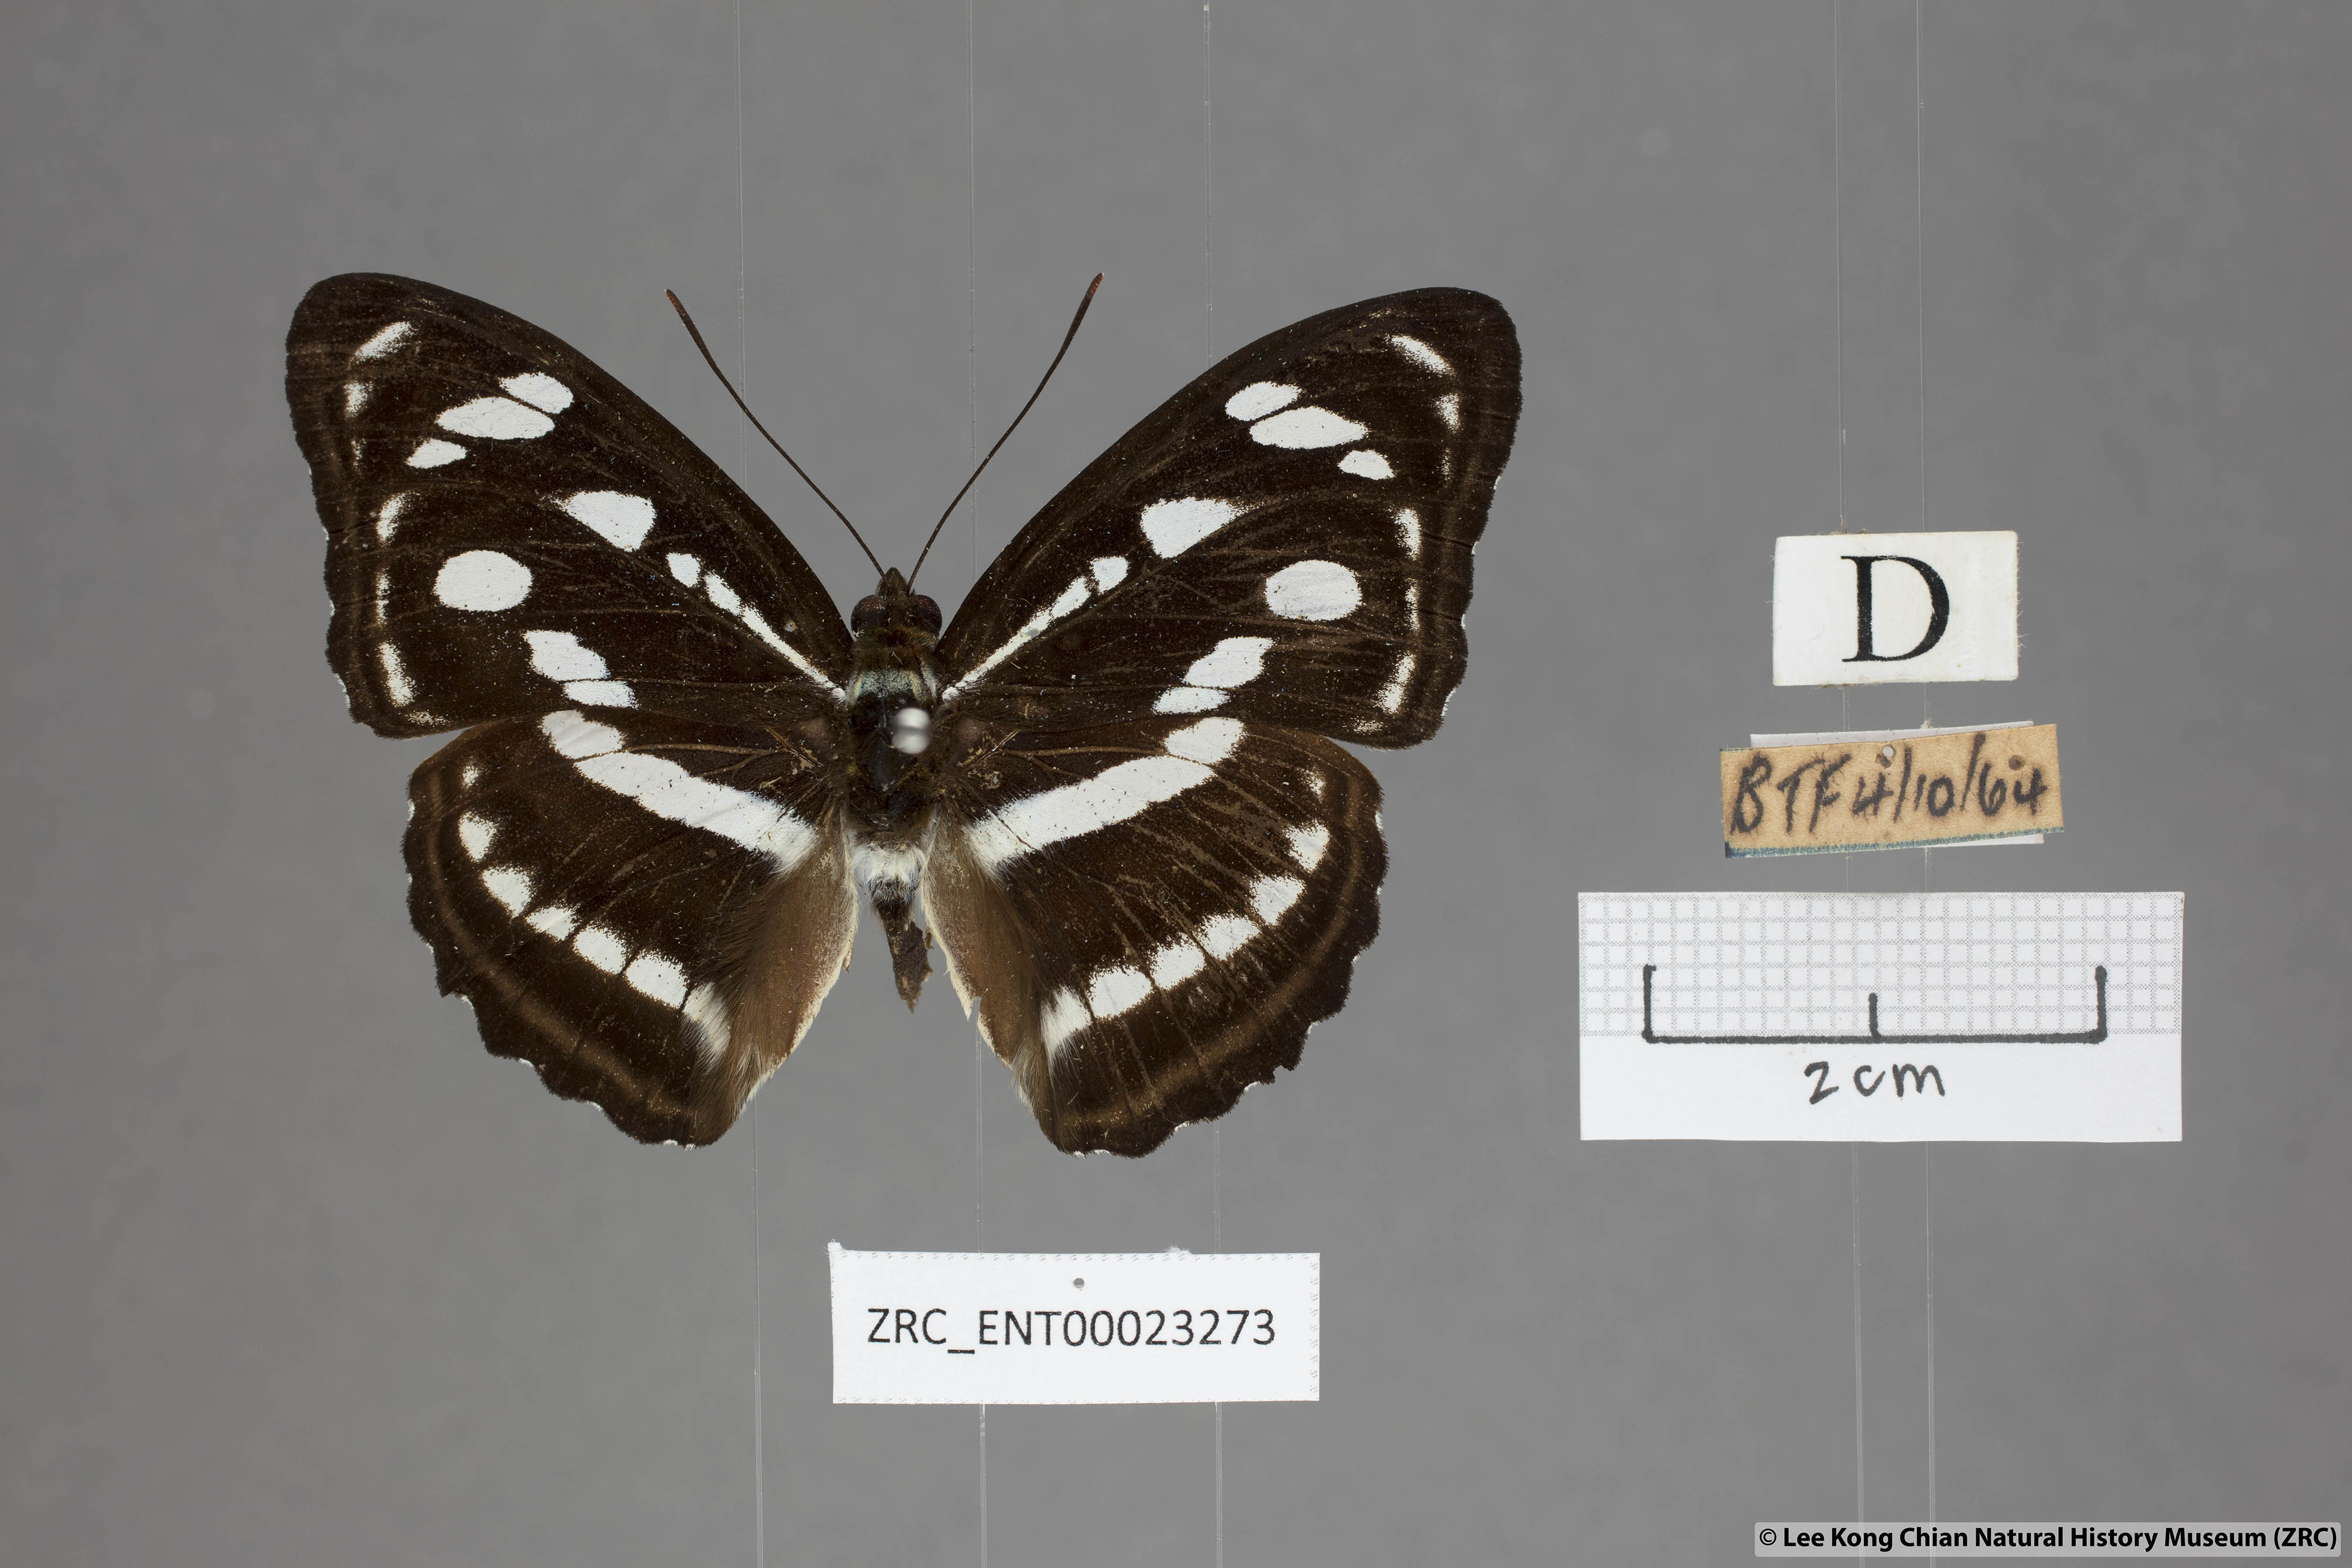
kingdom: Animalia
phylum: Arthropoda
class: Insecta
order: Lepidoptera
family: Nymphalidae
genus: Parathyma
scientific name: Parathyma reta
